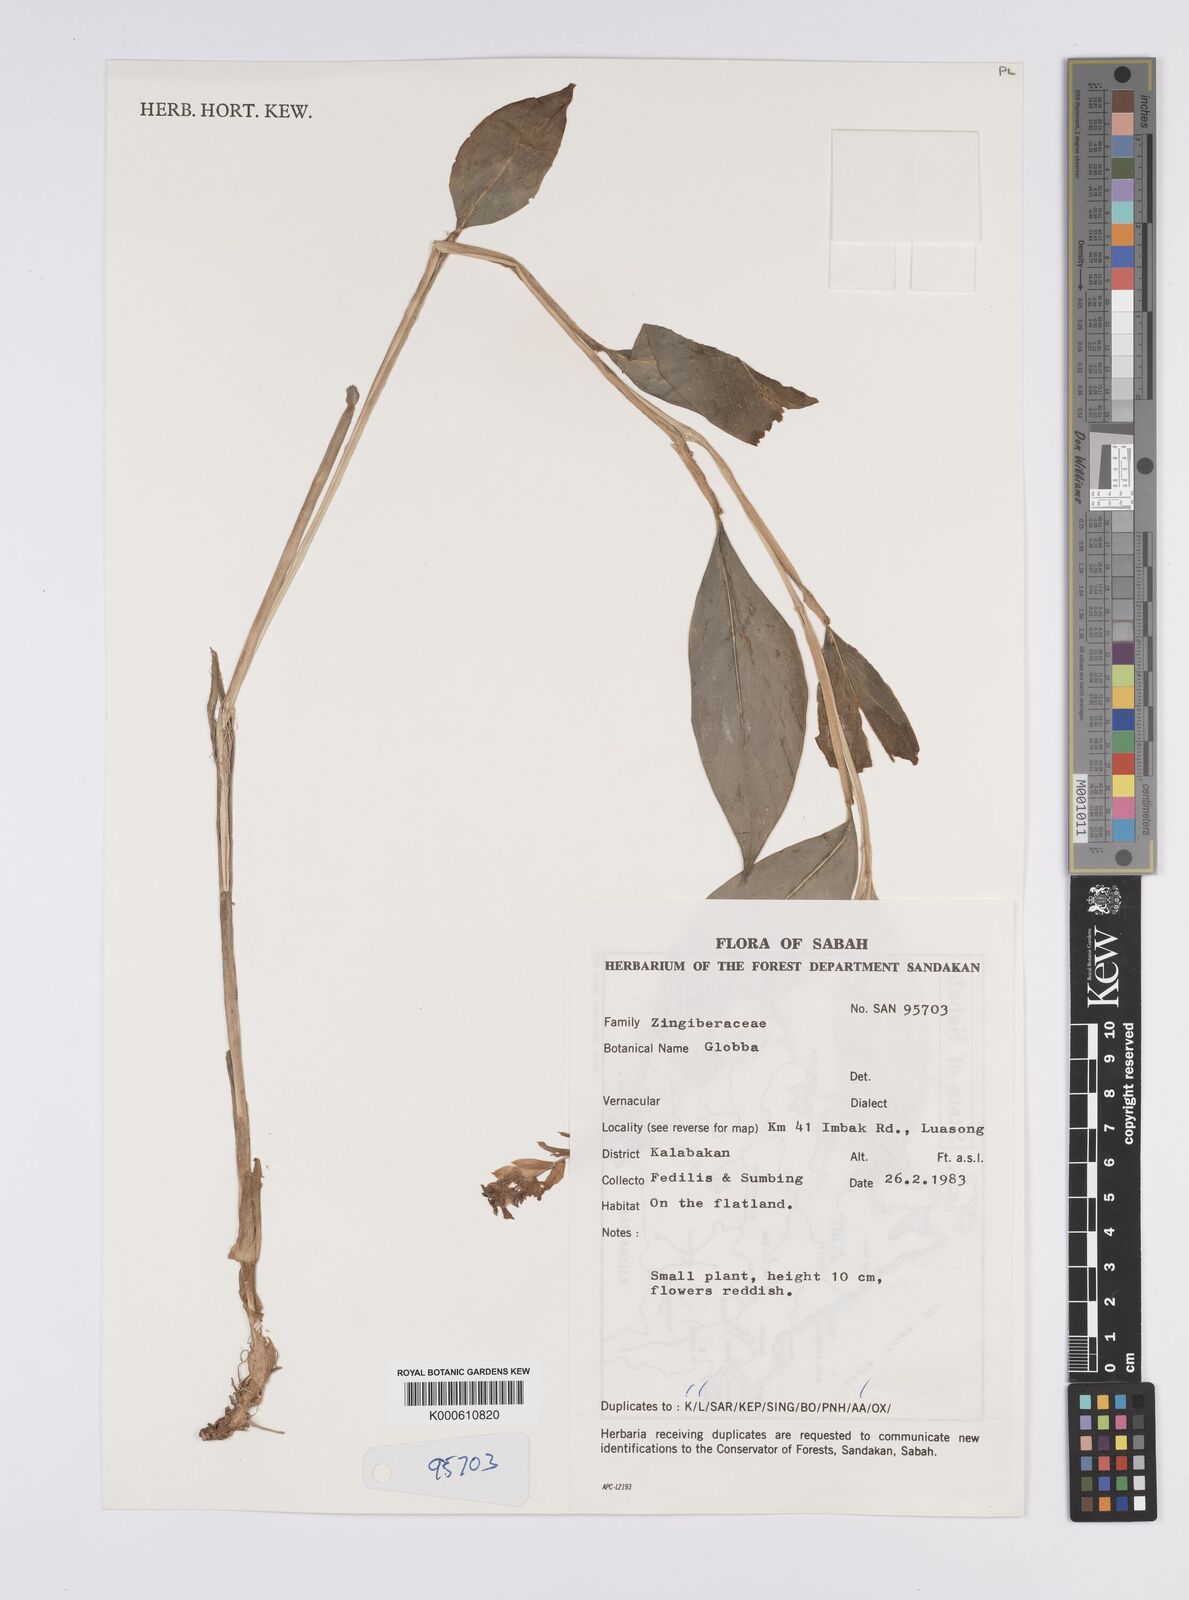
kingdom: Plantae
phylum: Tracheophyta
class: Liliopsida
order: Zingiberales
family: Zingiberaceae
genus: Globba
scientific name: Globba atrosanguinea
